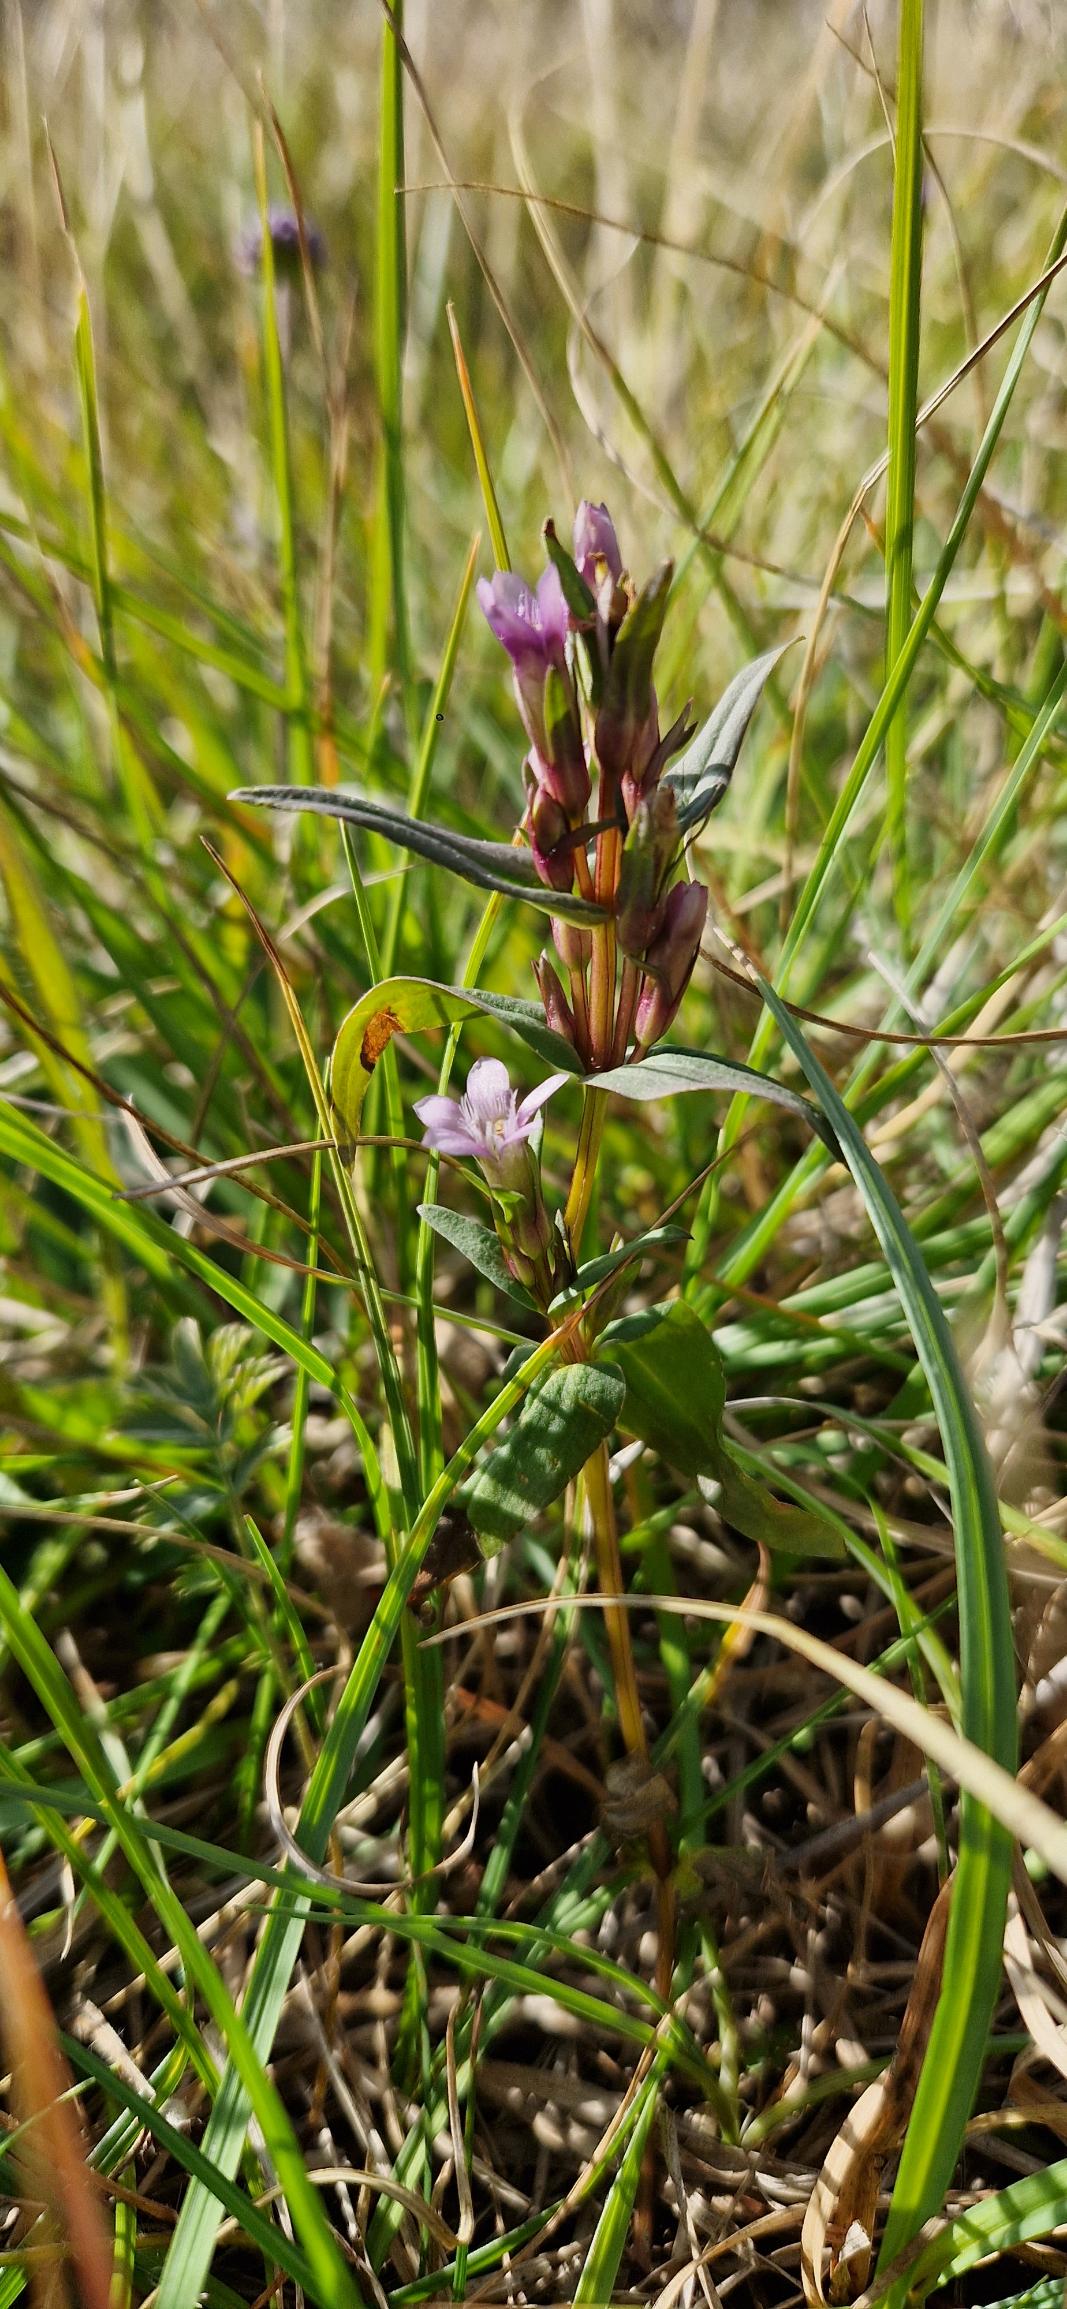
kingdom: Plantae
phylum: Tracheophyta
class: Magnoliopsida
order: Gentianales
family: Gentianaceae
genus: Gentianella
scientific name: Gentianella uliginosa
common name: Eng-ensian
